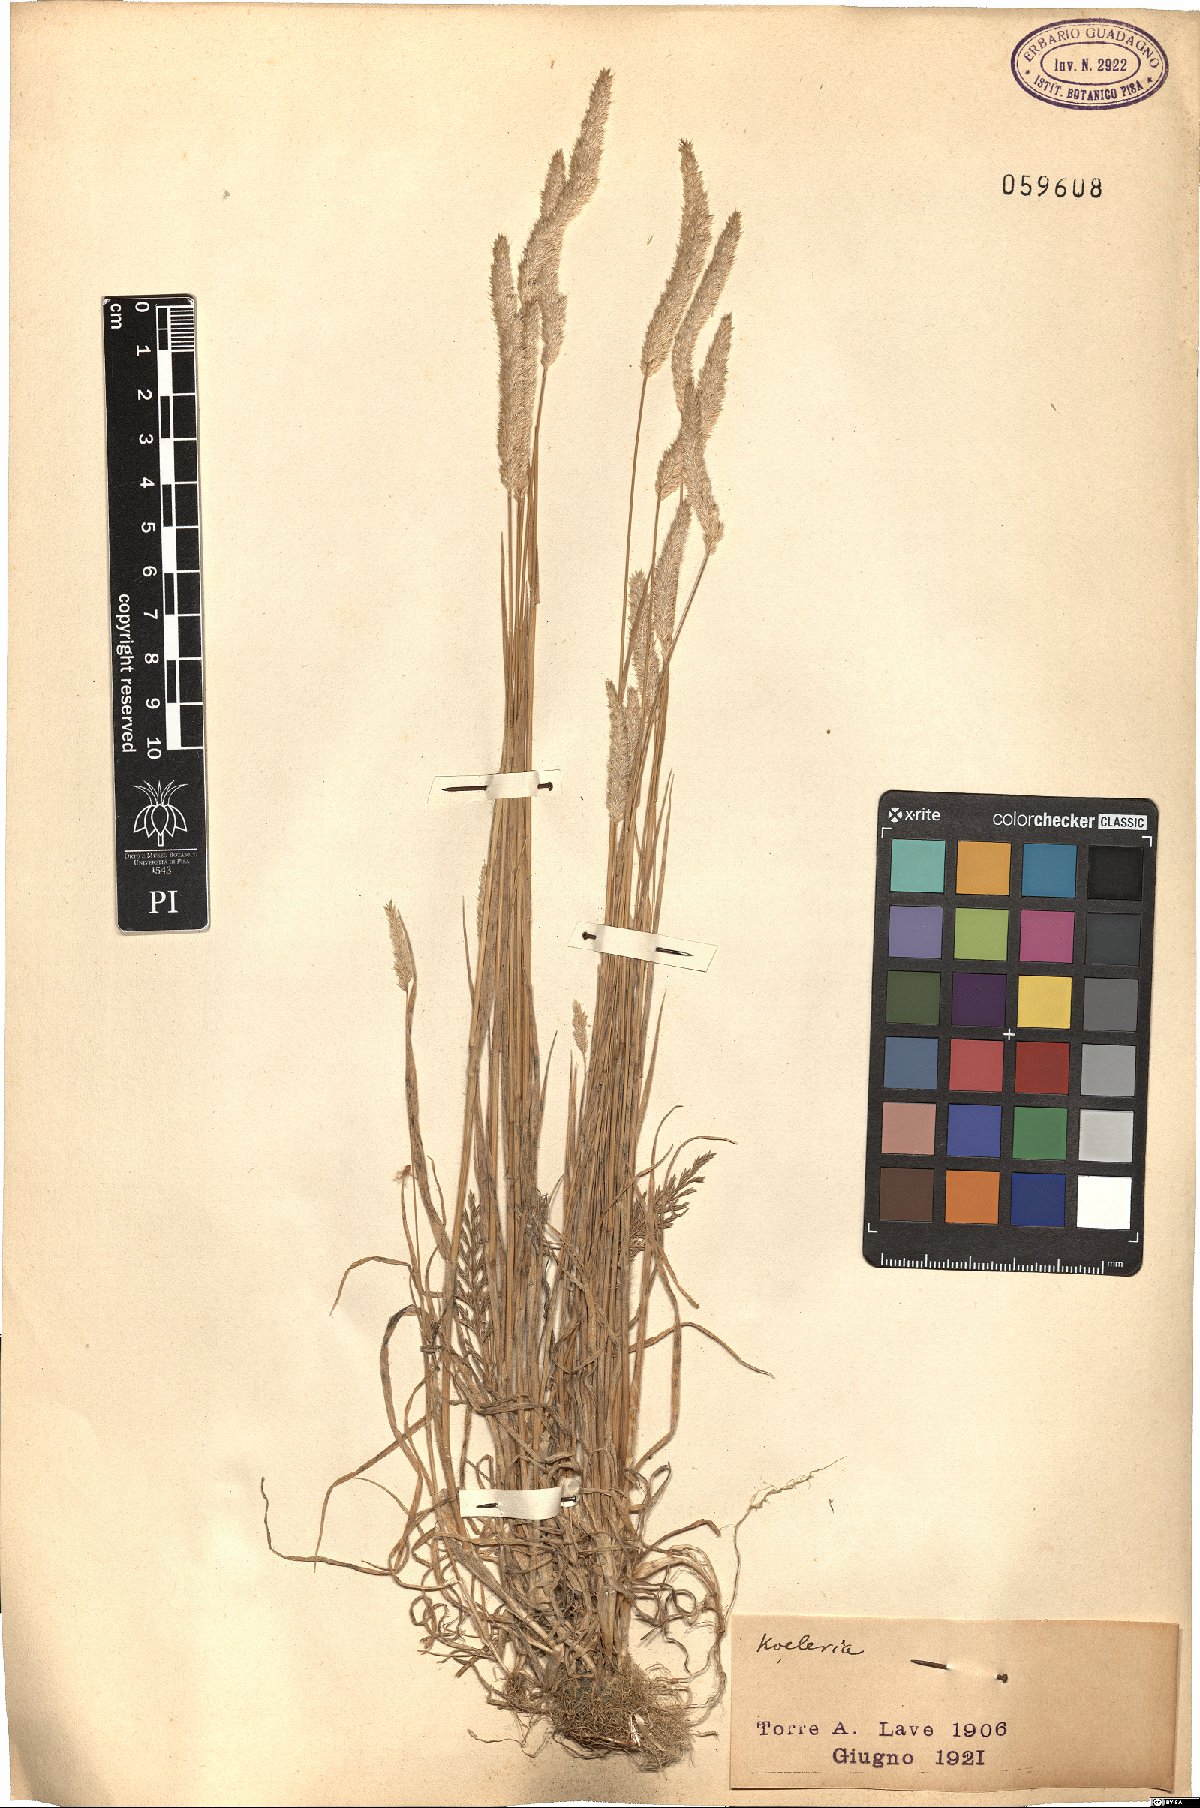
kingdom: Plantae
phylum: Tracheophyta
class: Liliopsida
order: Poales
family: Poaceae
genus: Koeleria
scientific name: Koeleria
